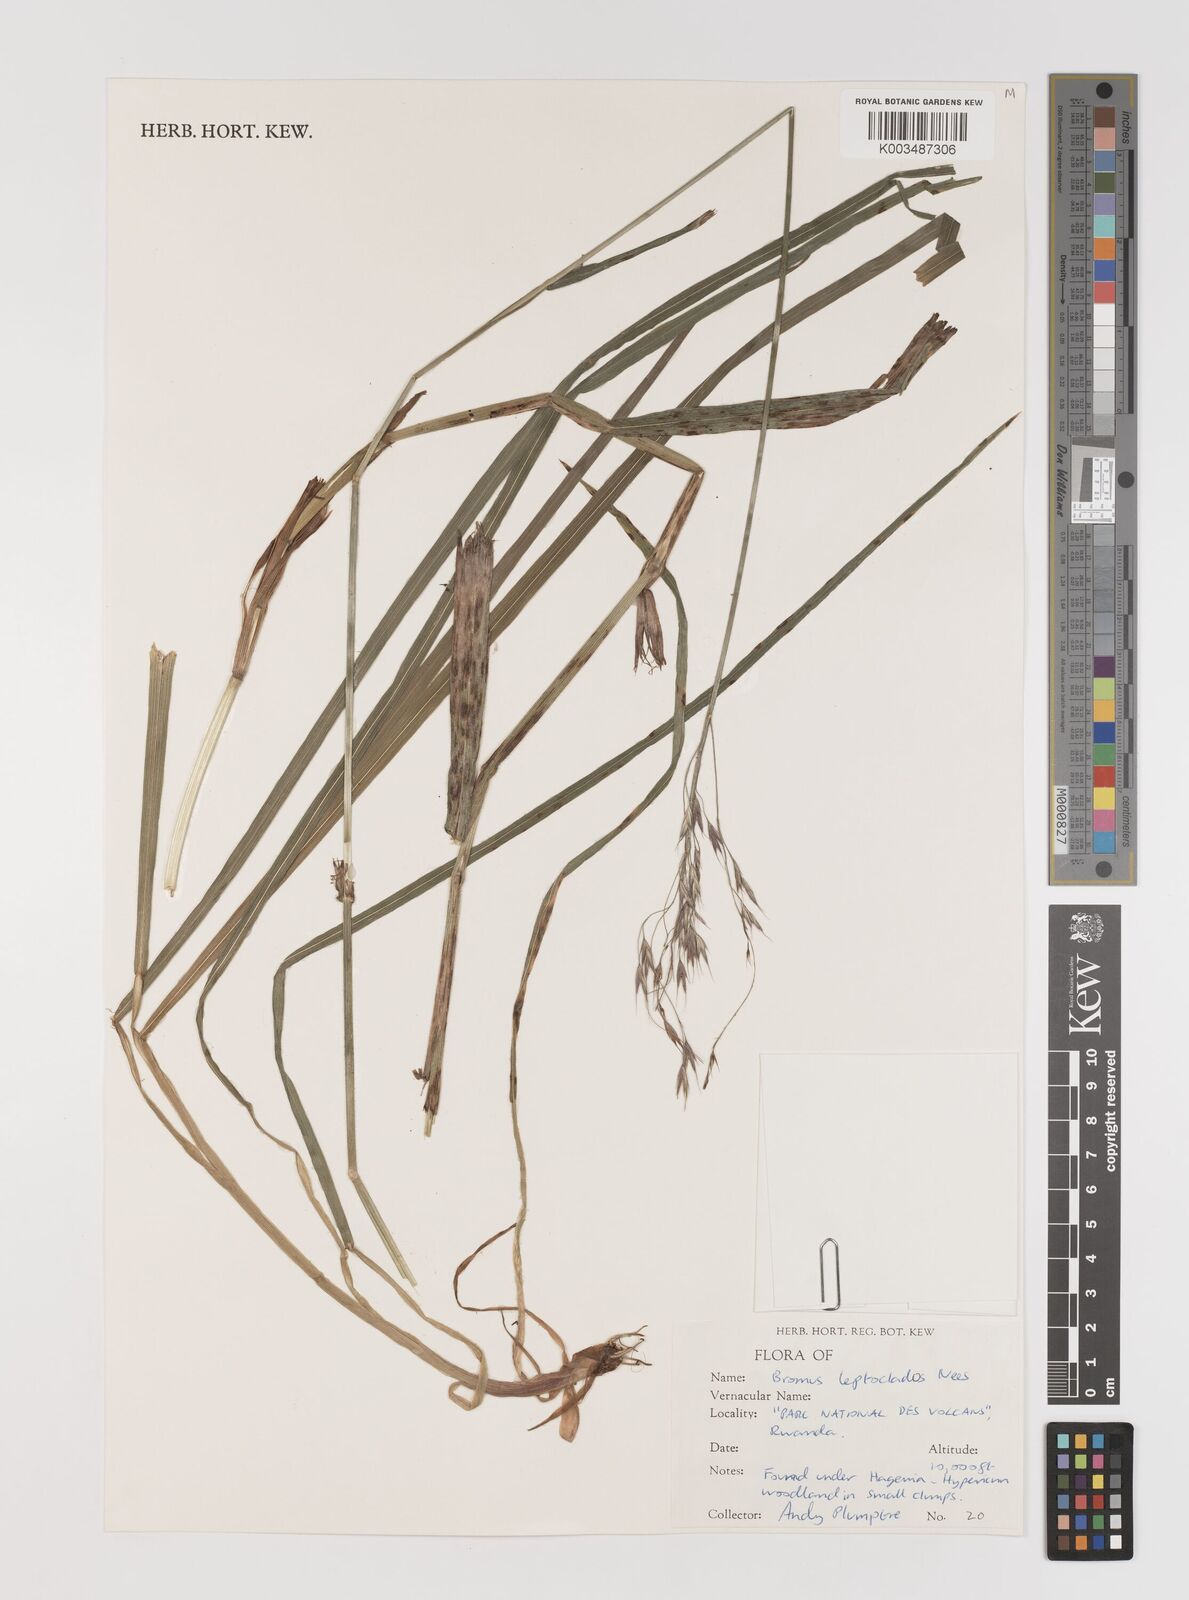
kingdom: Plantae
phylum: Tracheophyta
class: Liliopsida
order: Poales
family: Poaceae
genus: Bromus
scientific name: Bromus leptoclados
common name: Mountain bromegrass
